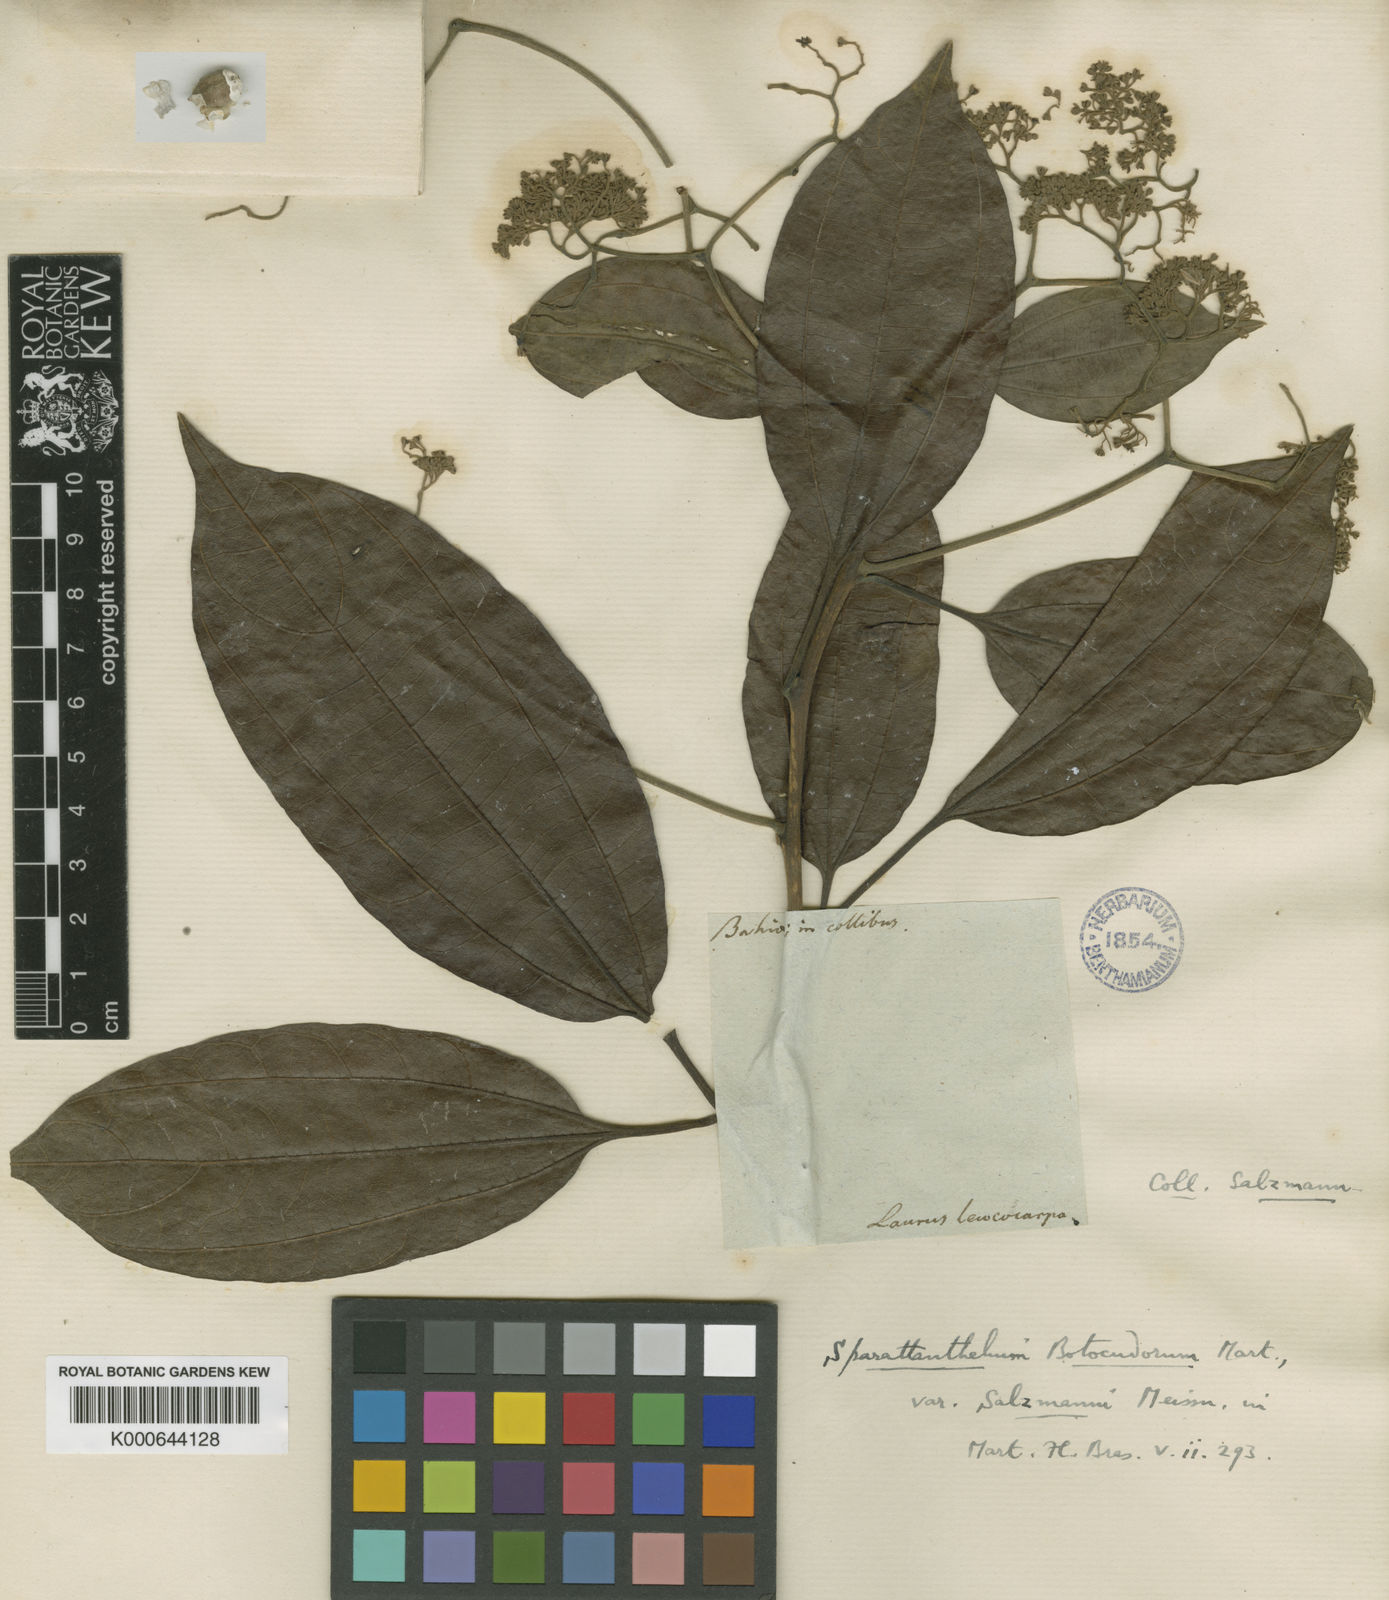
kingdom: Plantae
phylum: Tracheophyta
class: Magnoliopsida
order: Laurales
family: Hernandiaceae
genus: Sparattanthelium
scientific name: Sparattanthelium botocudorum
